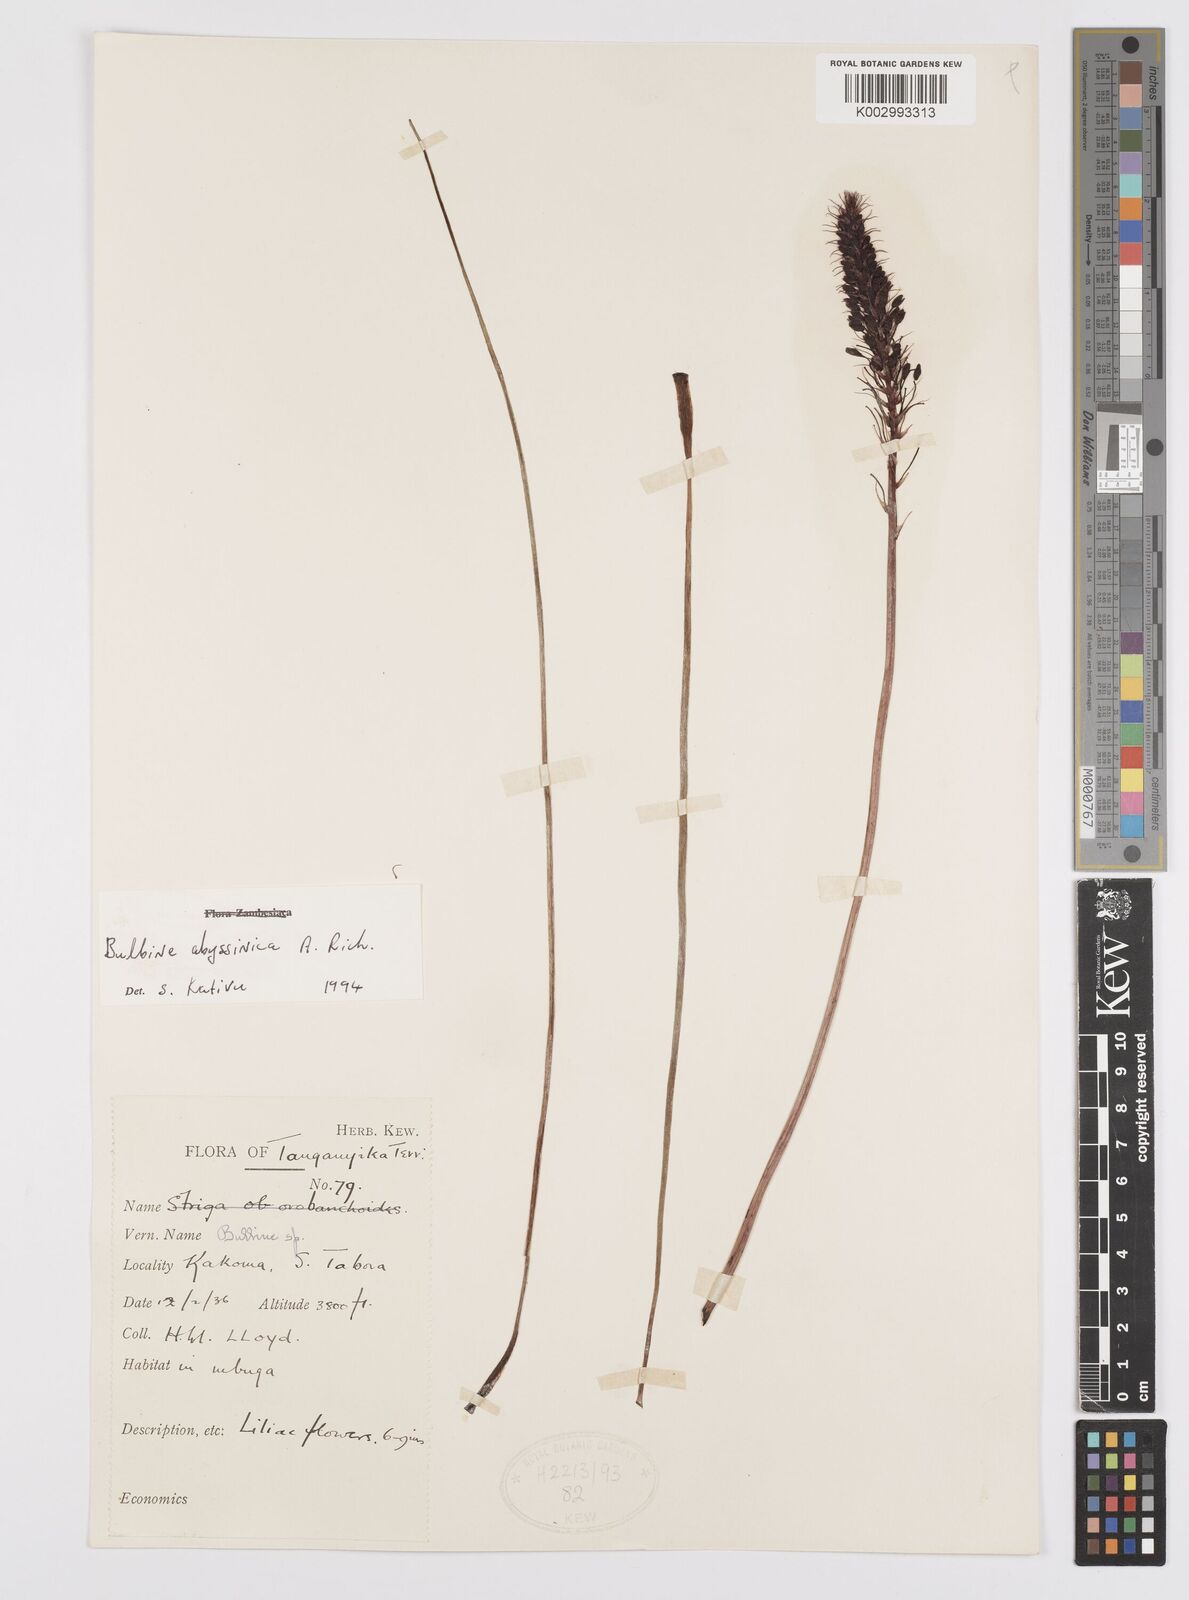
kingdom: Plantae
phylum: Tracheophyta
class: Liliopsida
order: Asparagales
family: Asphodelaceae
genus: Bulbine
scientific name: Bulbine abyssinica
